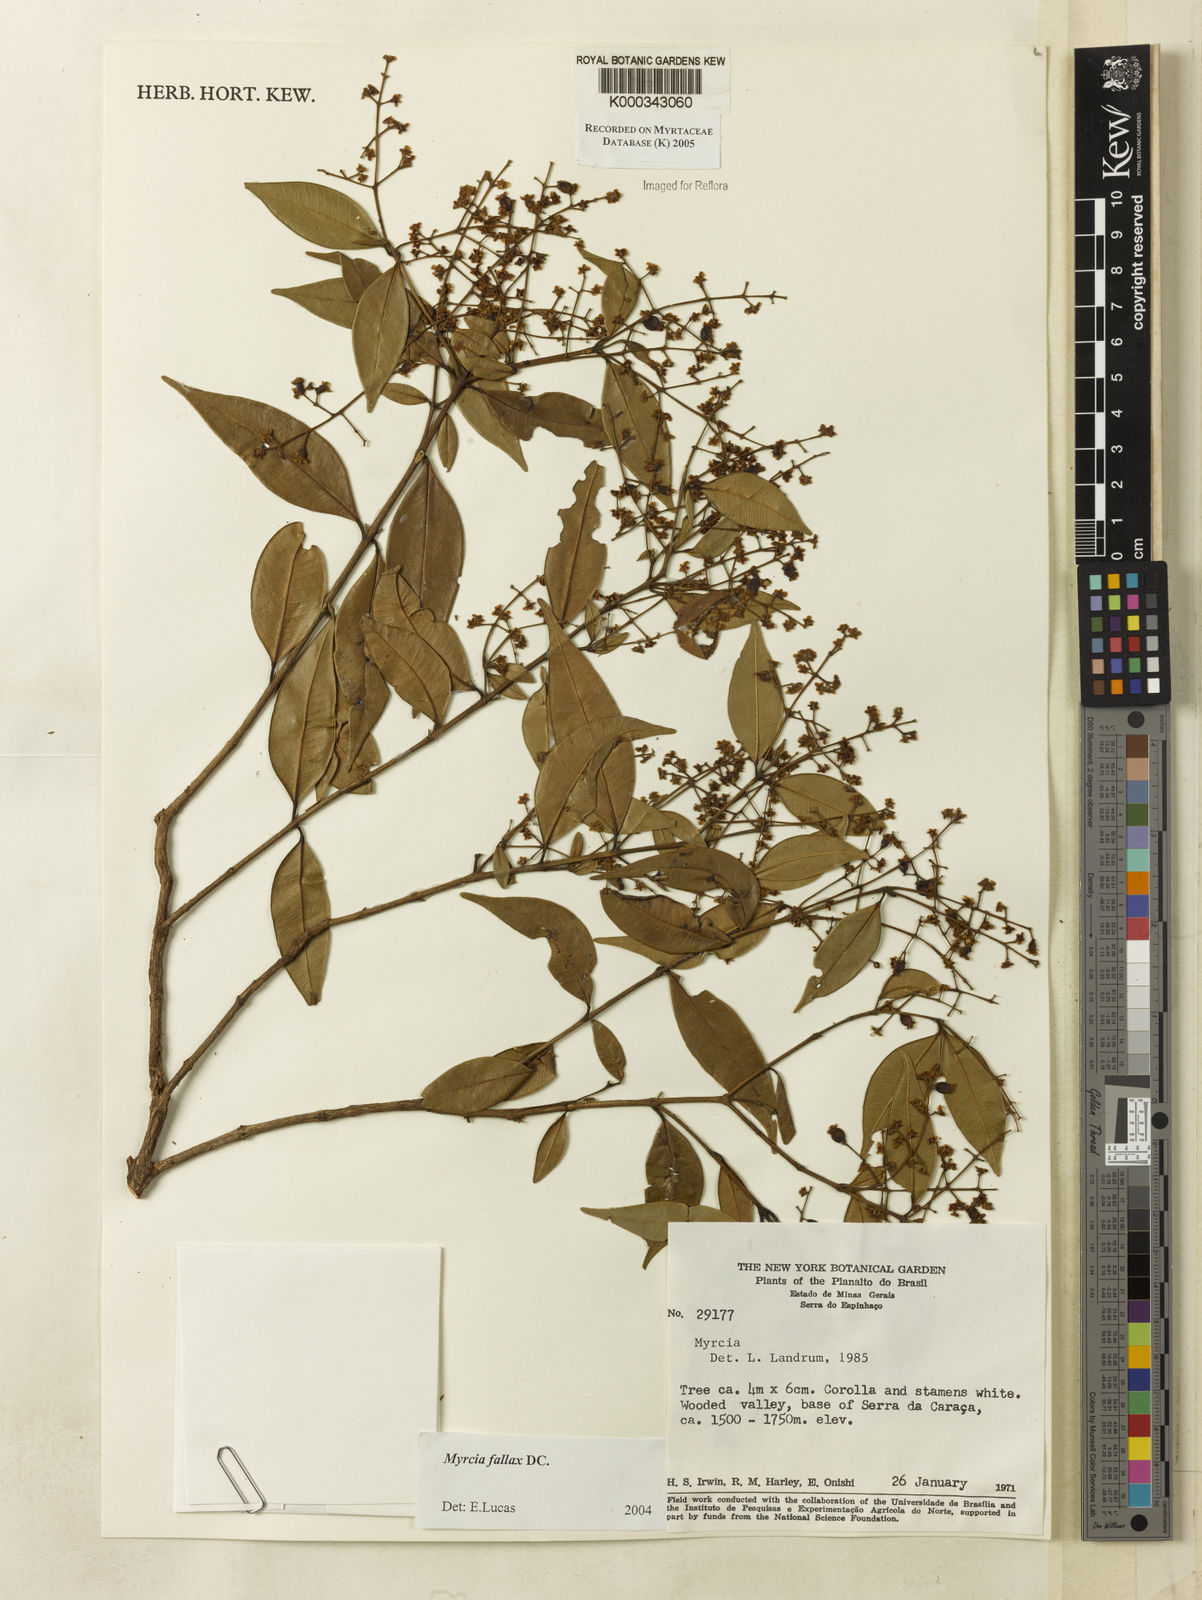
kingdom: Plantae
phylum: Tracheophyta
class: Magnoliopsida
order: Myrtales
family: Myrtaceae
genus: Myrcia
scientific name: Myrcia splendens
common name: Surinam cherry
